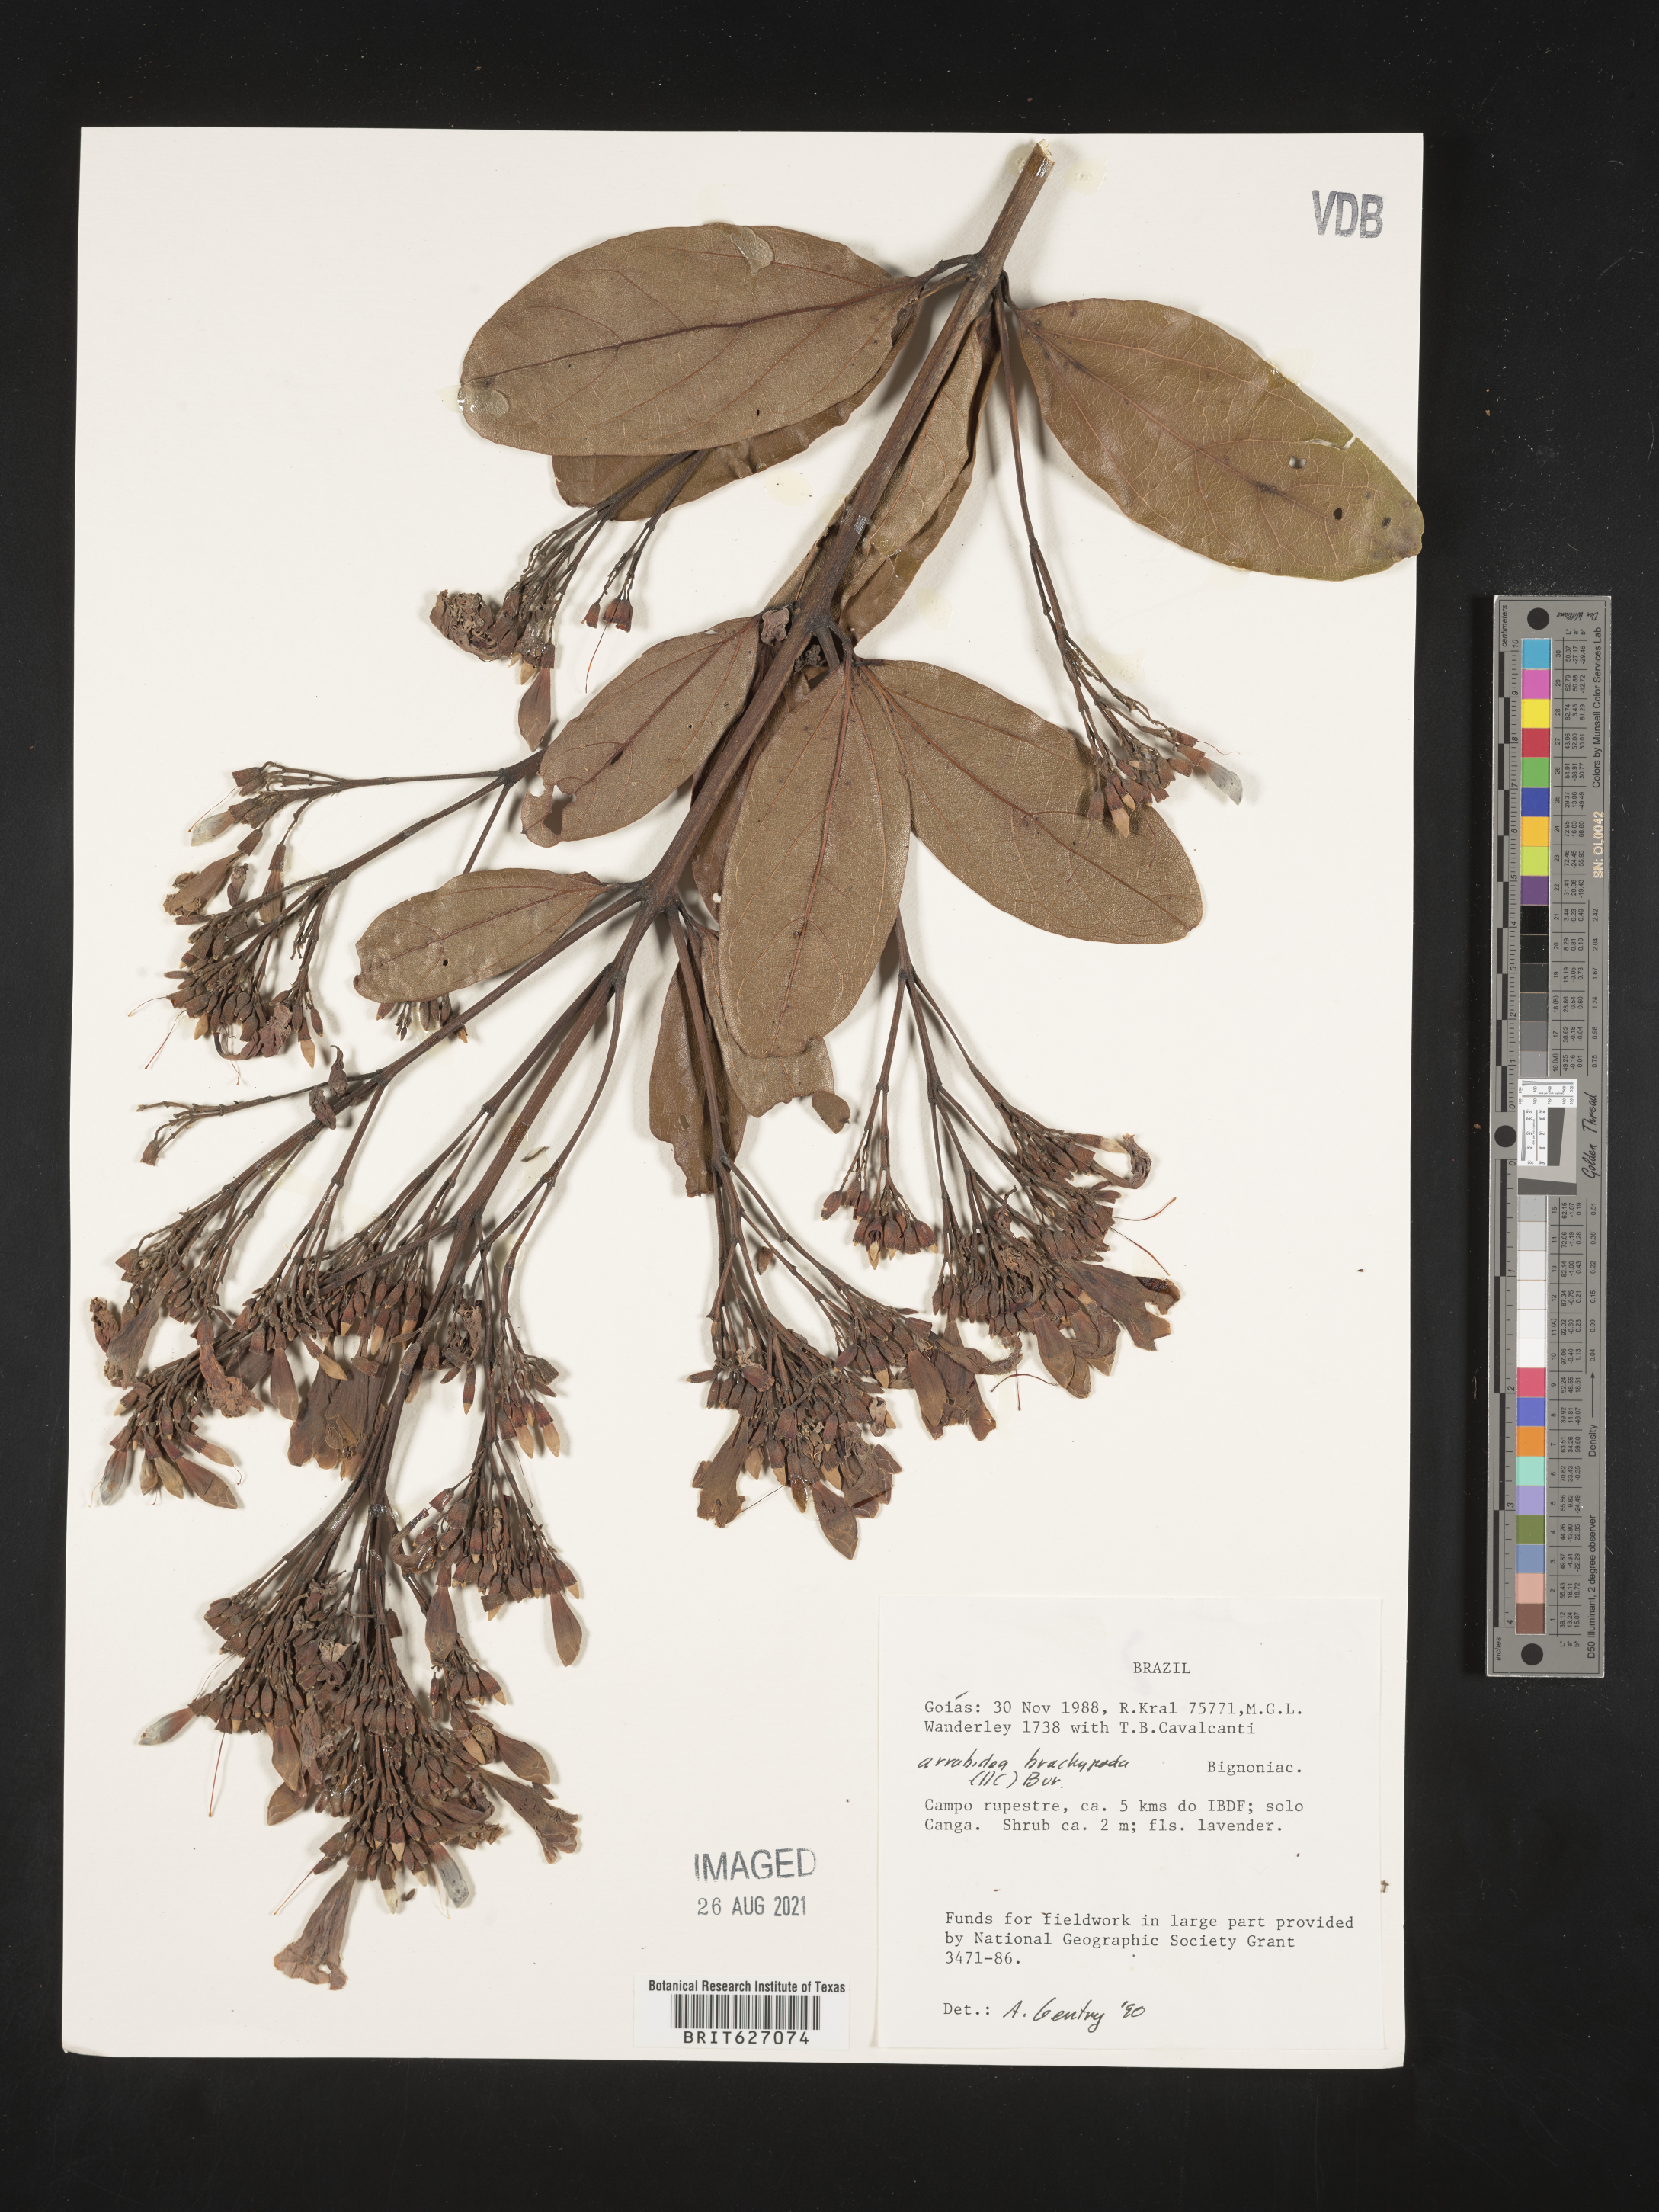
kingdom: Plantae
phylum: Tracheophyta
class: Magnoliopsida
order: Lamiales
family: Bignoniaceae
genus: Fridericia
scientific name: Fridericia platyphylla
